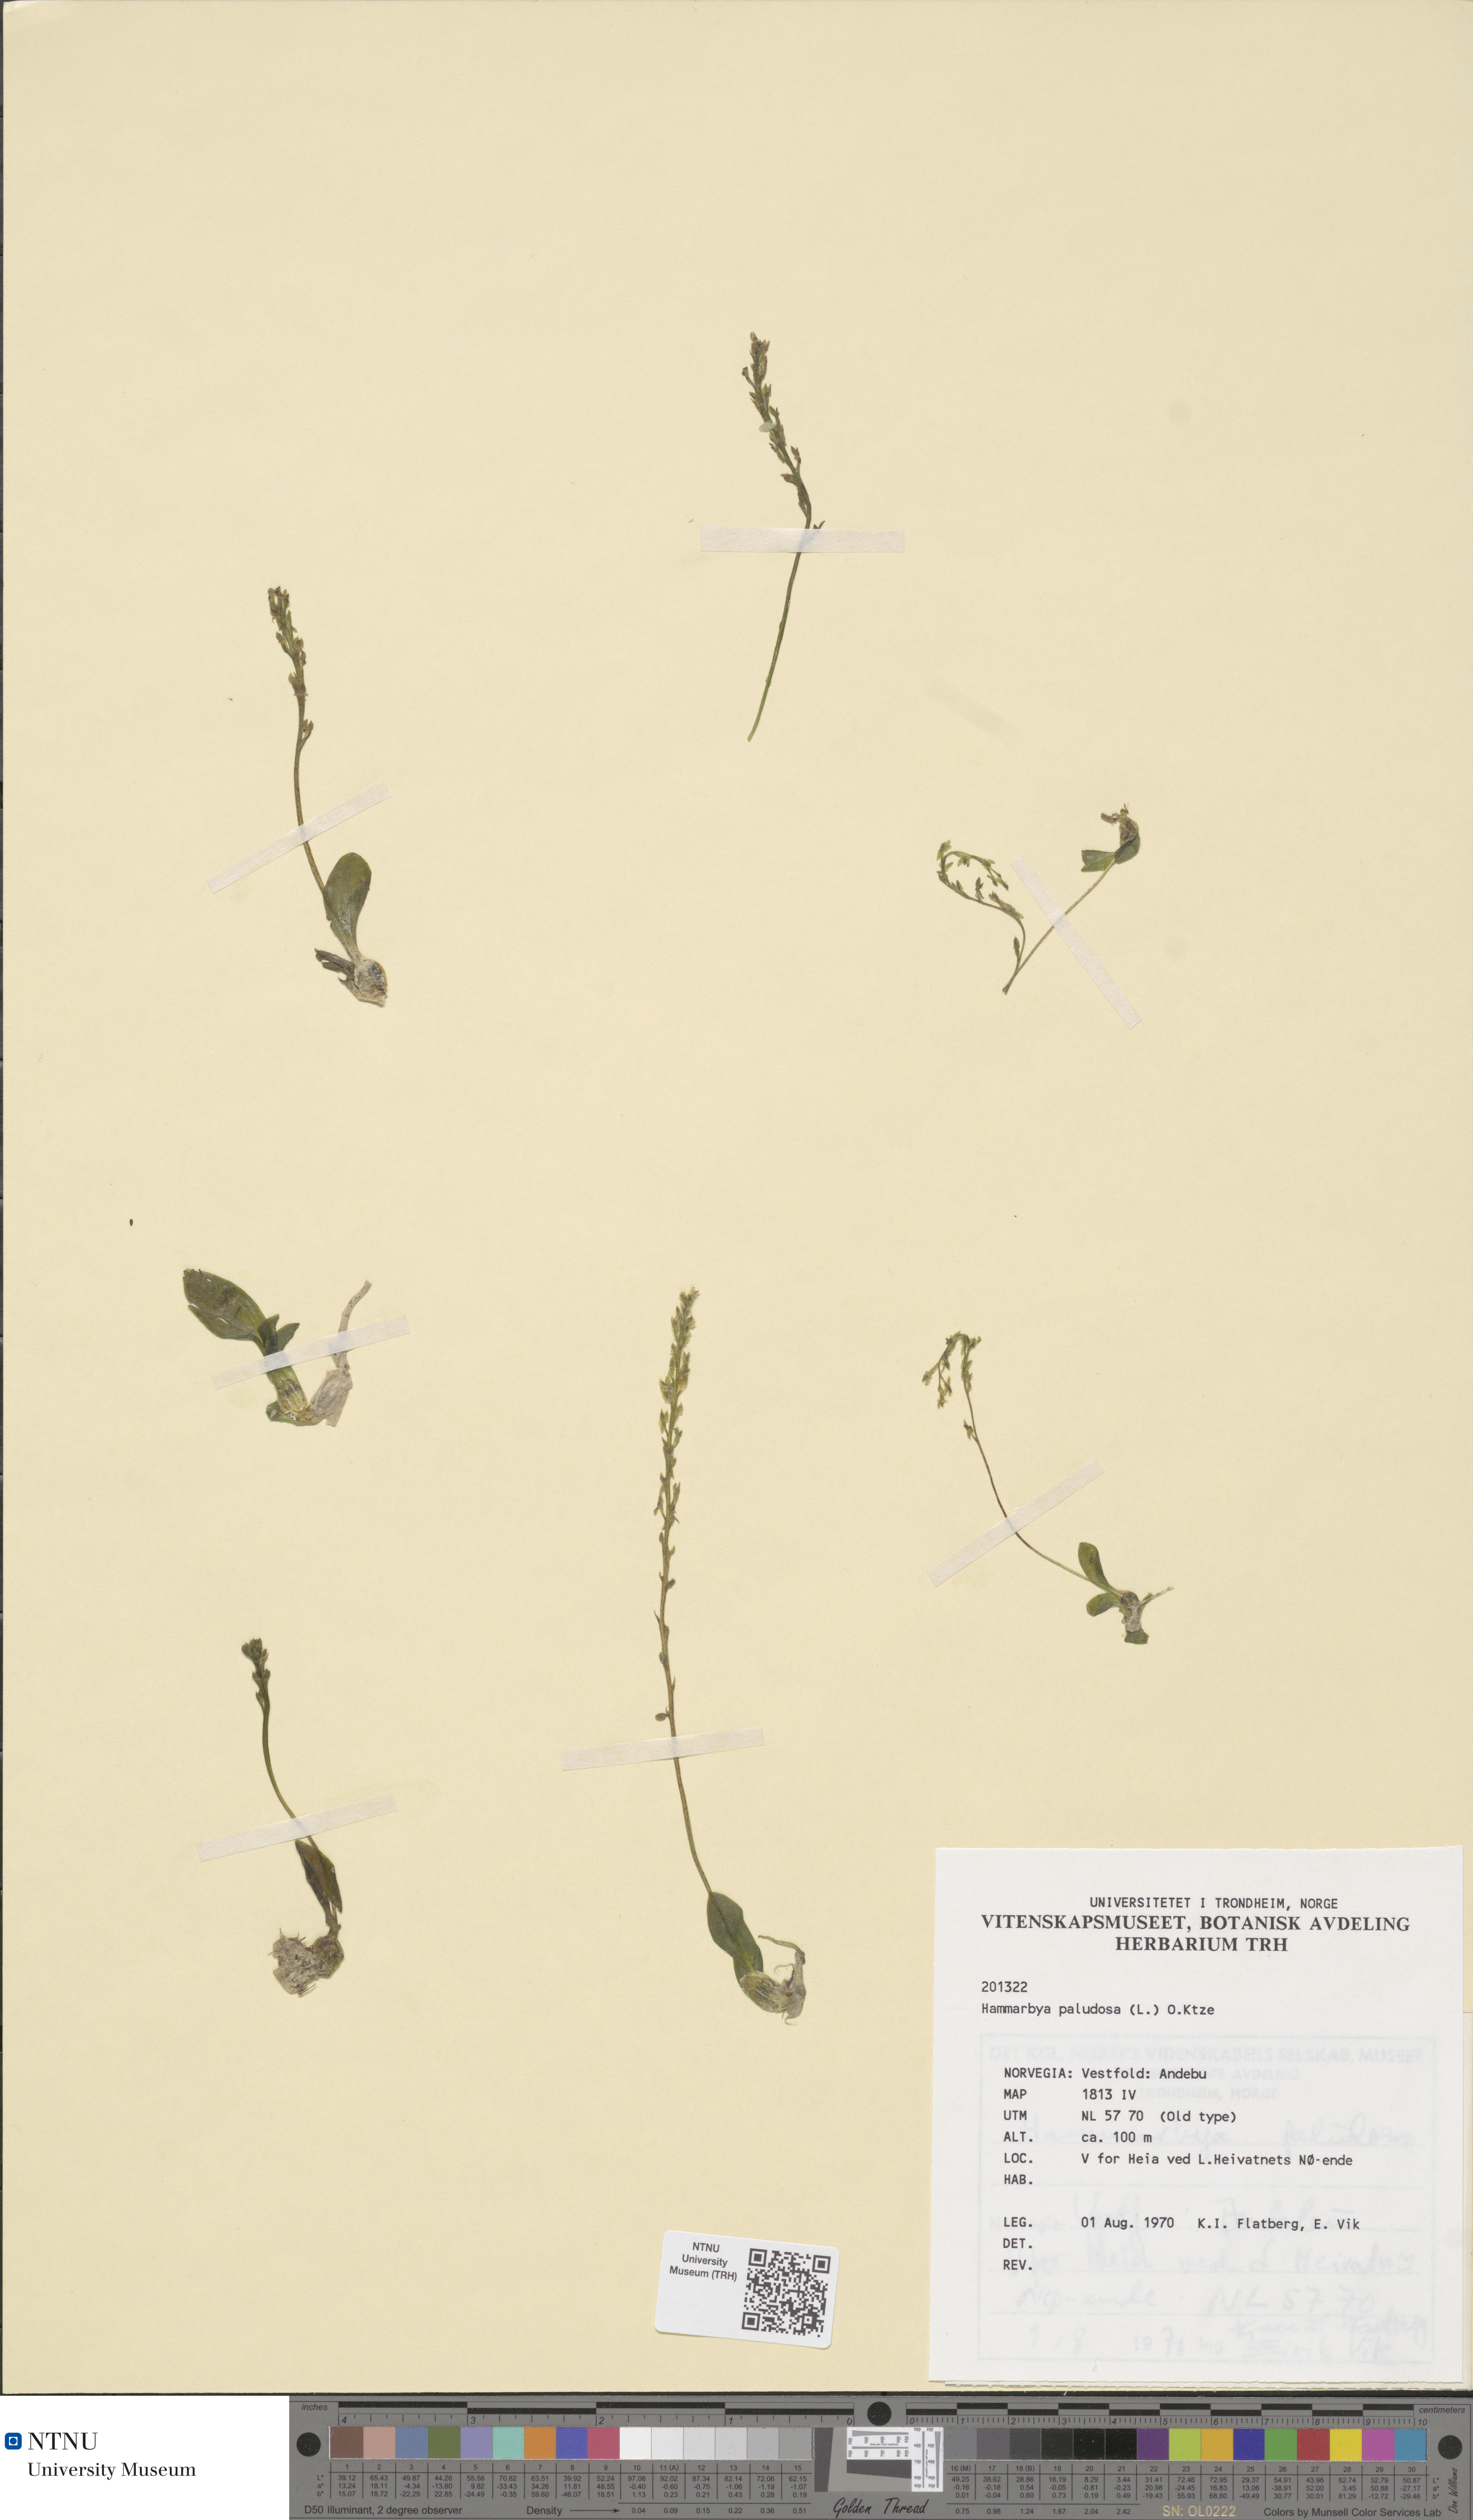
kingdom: Plantae
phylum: Tracheophyta
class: Liliopsida
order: Asparagales
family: Orchidaceae
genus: Hammarbya
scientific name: Hammarbya paludosa
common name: Bog orchid
